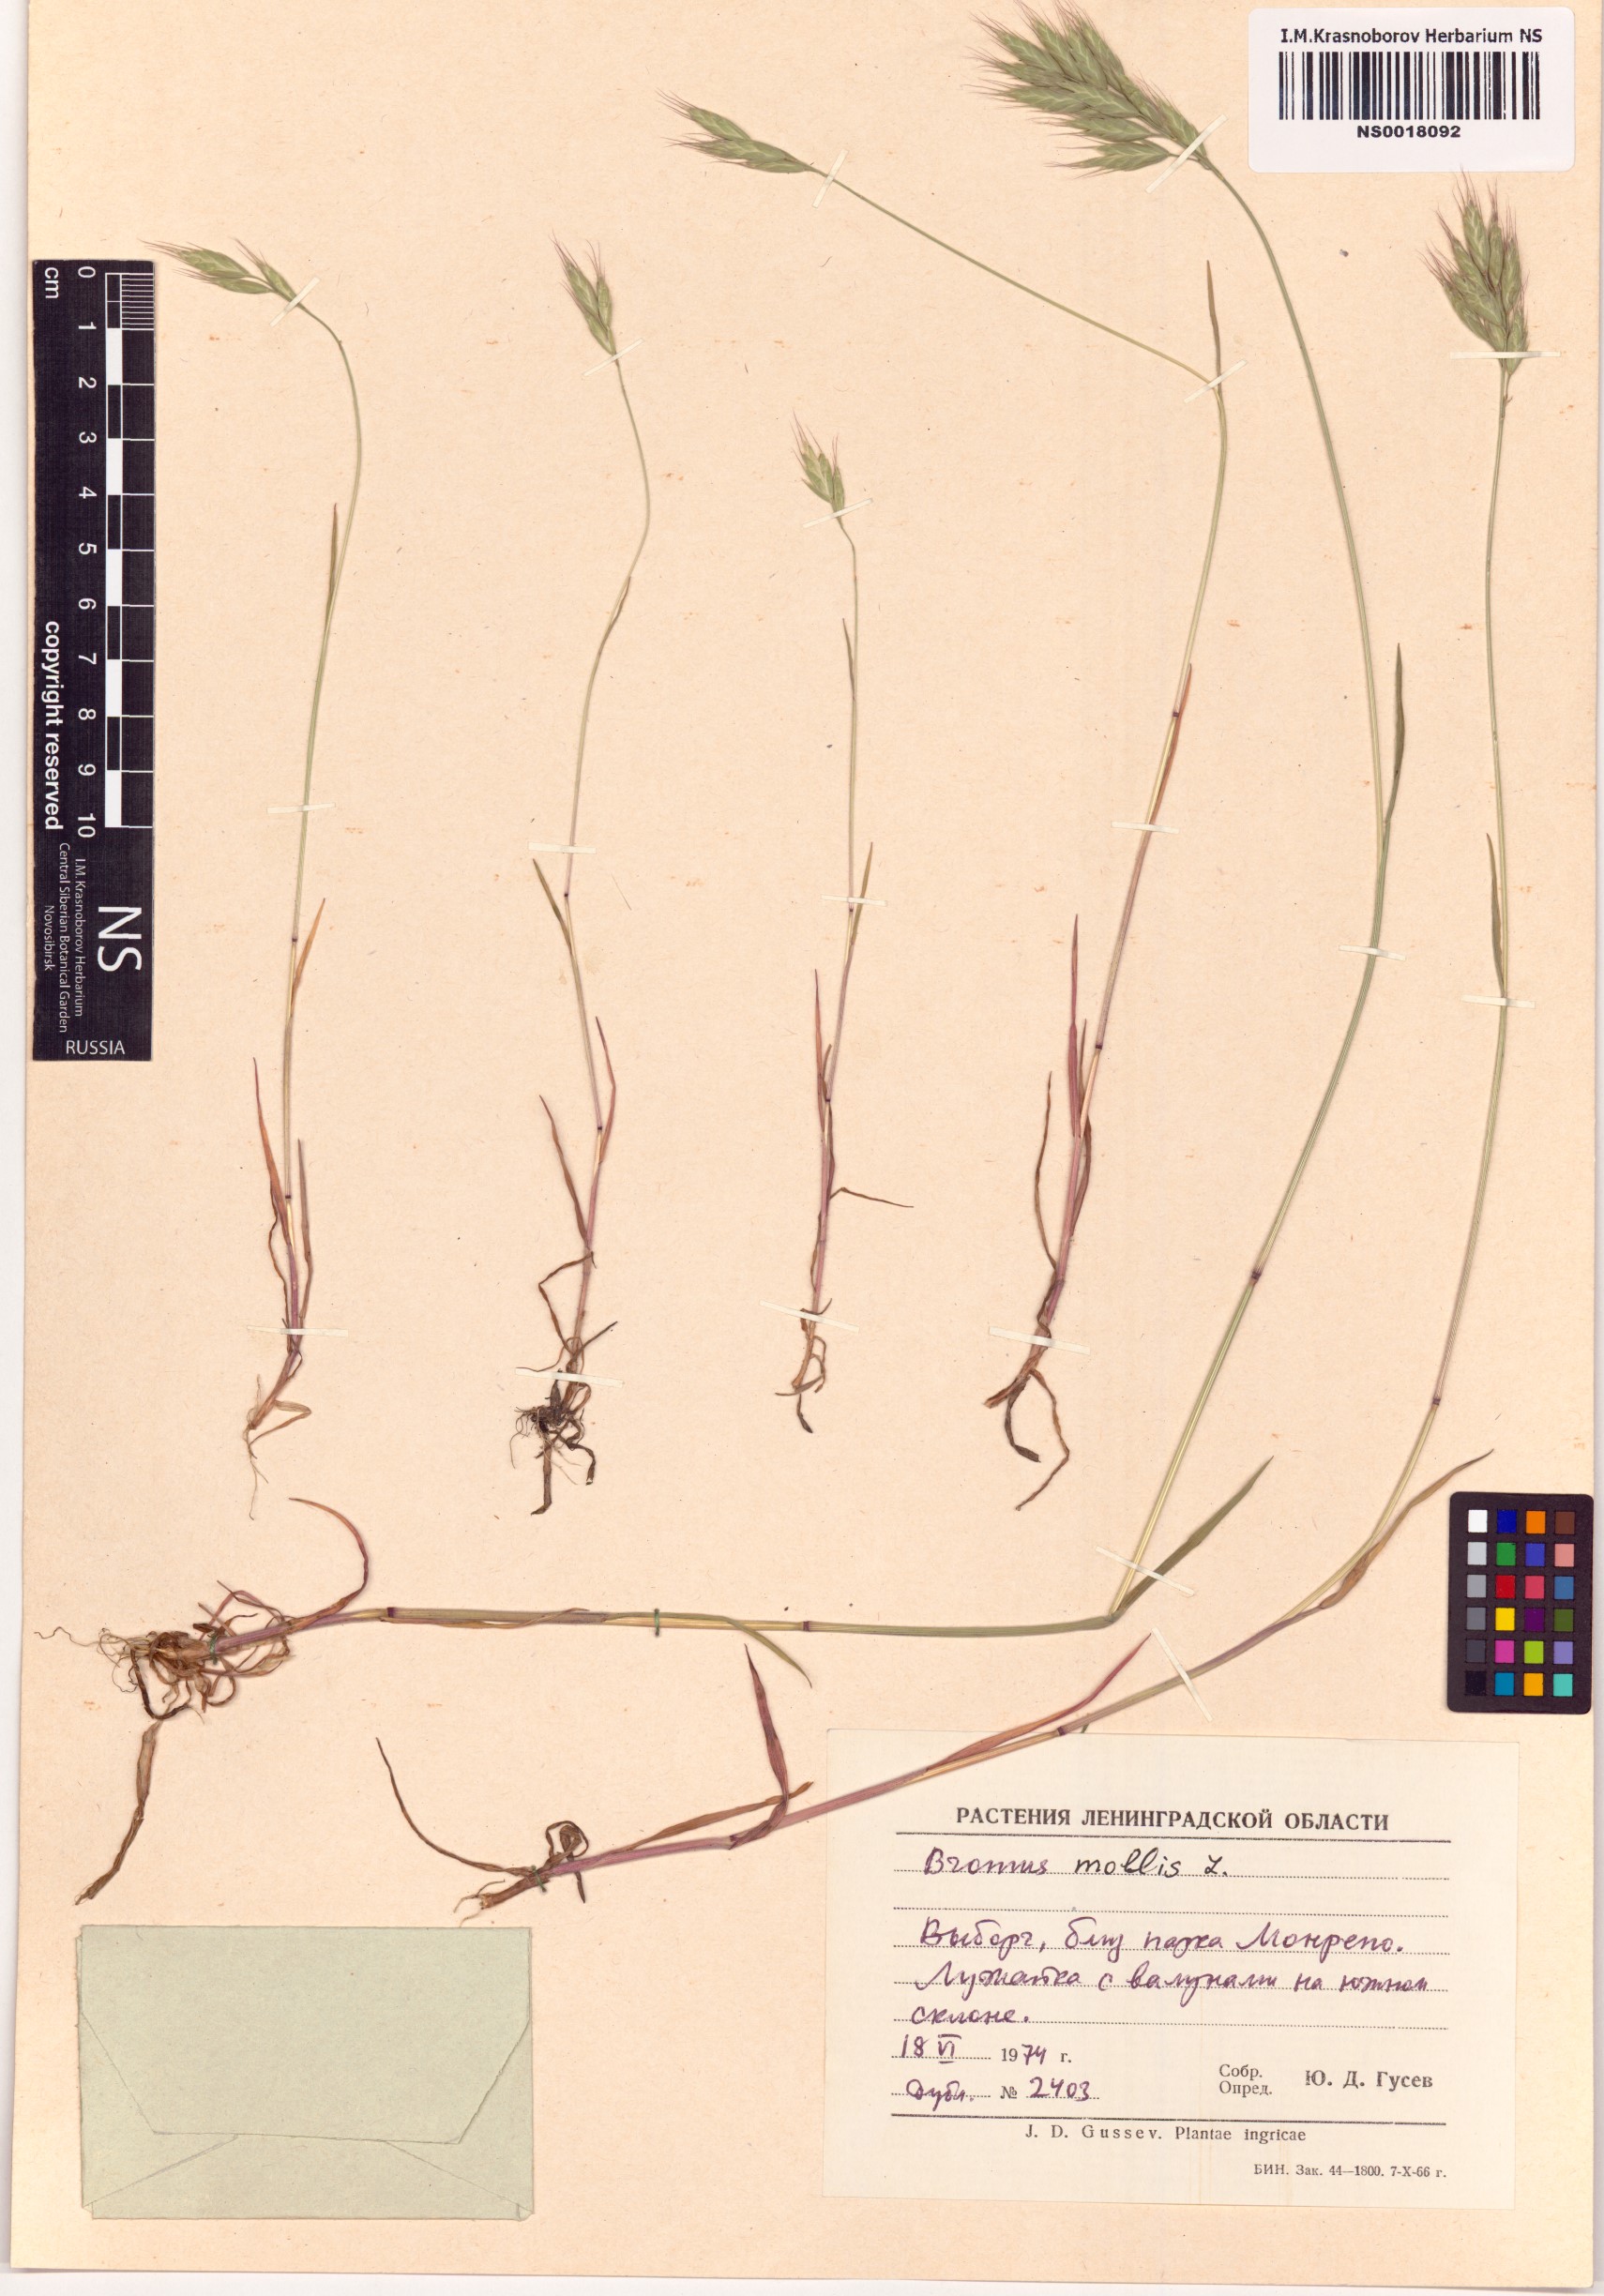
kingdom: Plantae
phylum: Tracheophyta
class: Liliopsida
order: Poales
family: Poaceae
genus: Bromus
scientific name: Bromus hordeaceus
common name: Soft brome
